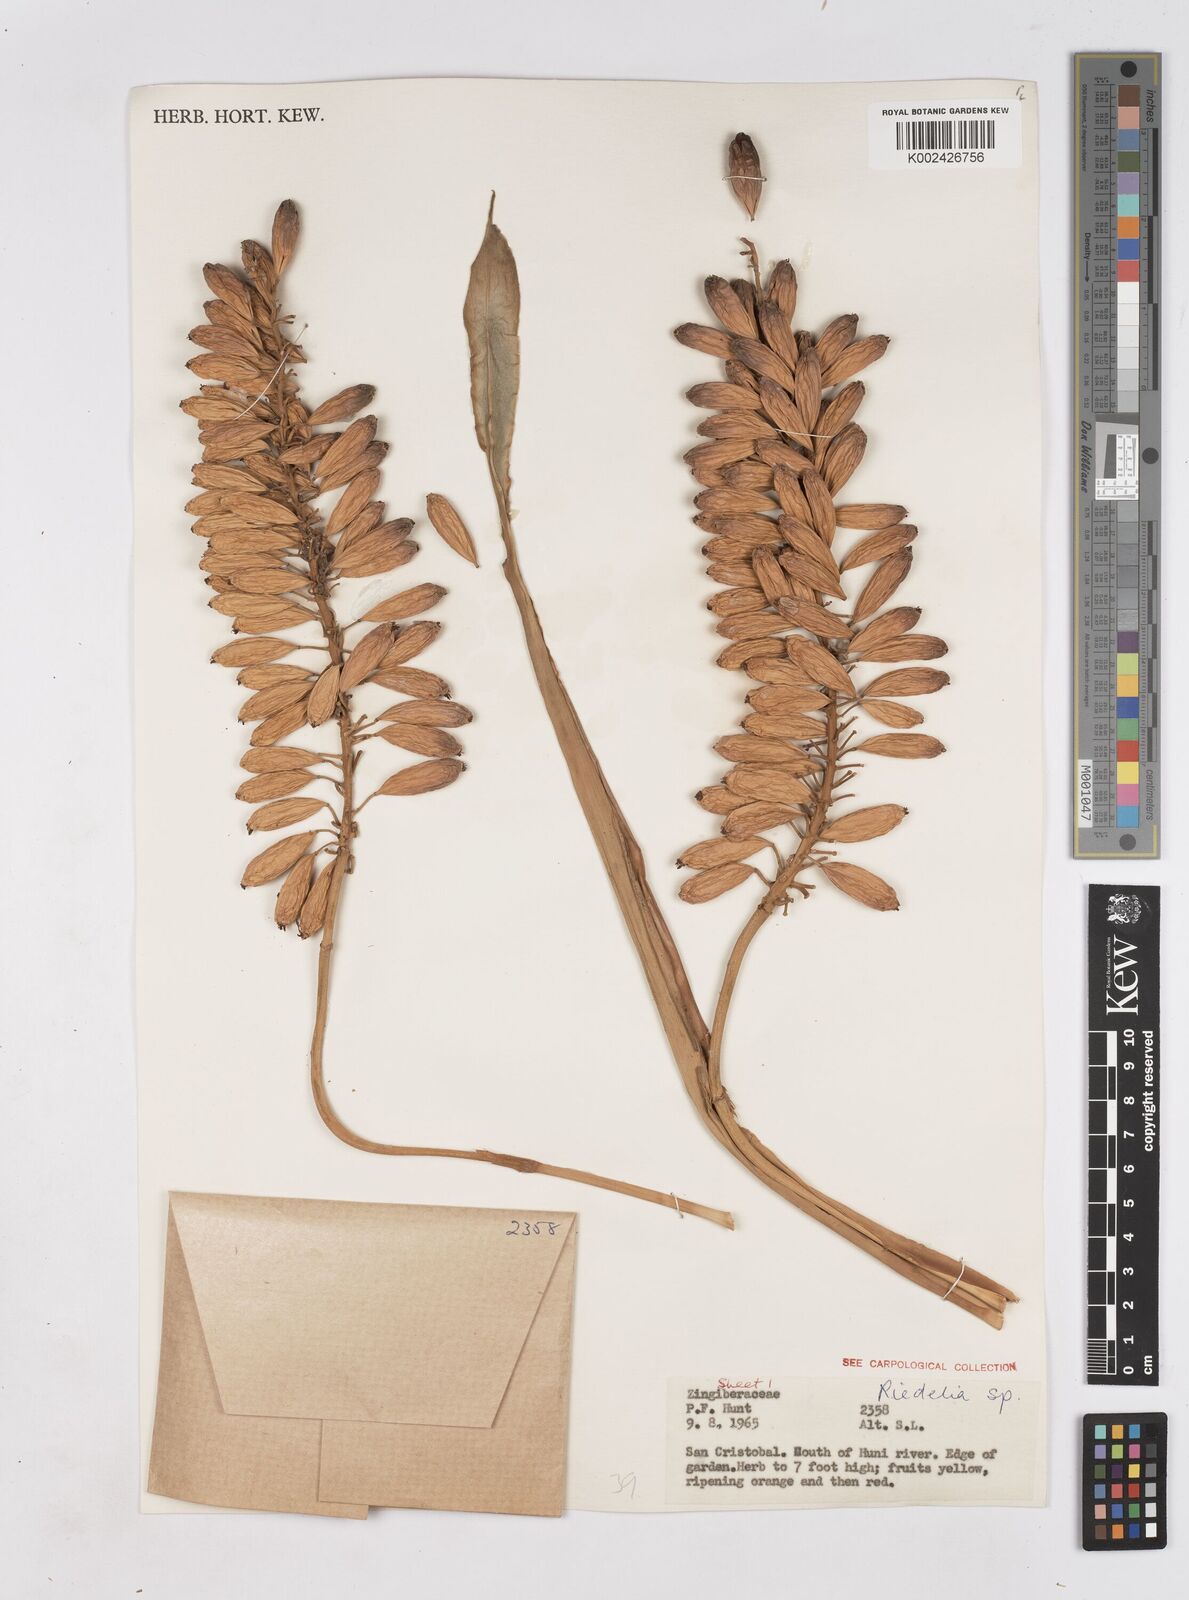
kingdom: Plantae
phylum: Tracheophyta
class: Liliopsida
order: Zingiberales
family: Zingiberaceae
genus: Riedelia
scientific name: Riedelia
